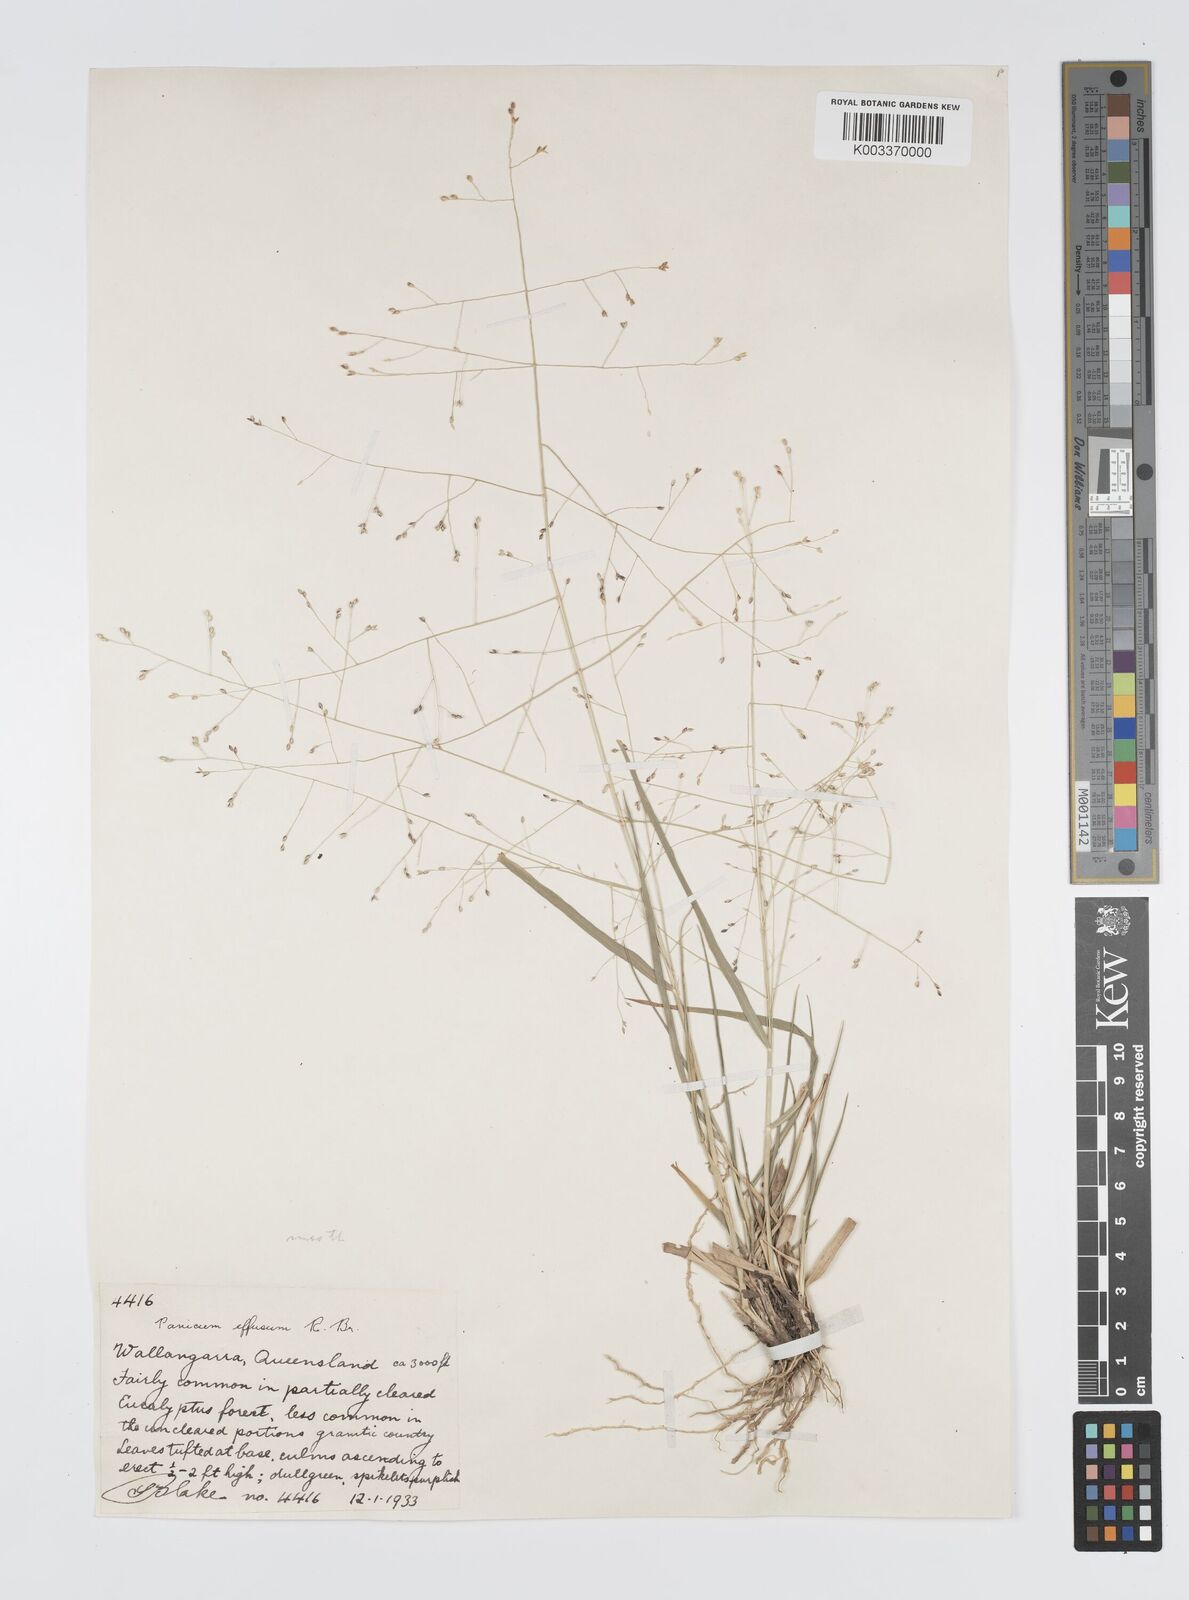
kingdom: Plantae
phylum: Tracheophyta
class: Liliopsida
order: Poales
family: Poaceae
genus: Panicum
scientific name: Panicum effusum
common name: Hairy panic grass
